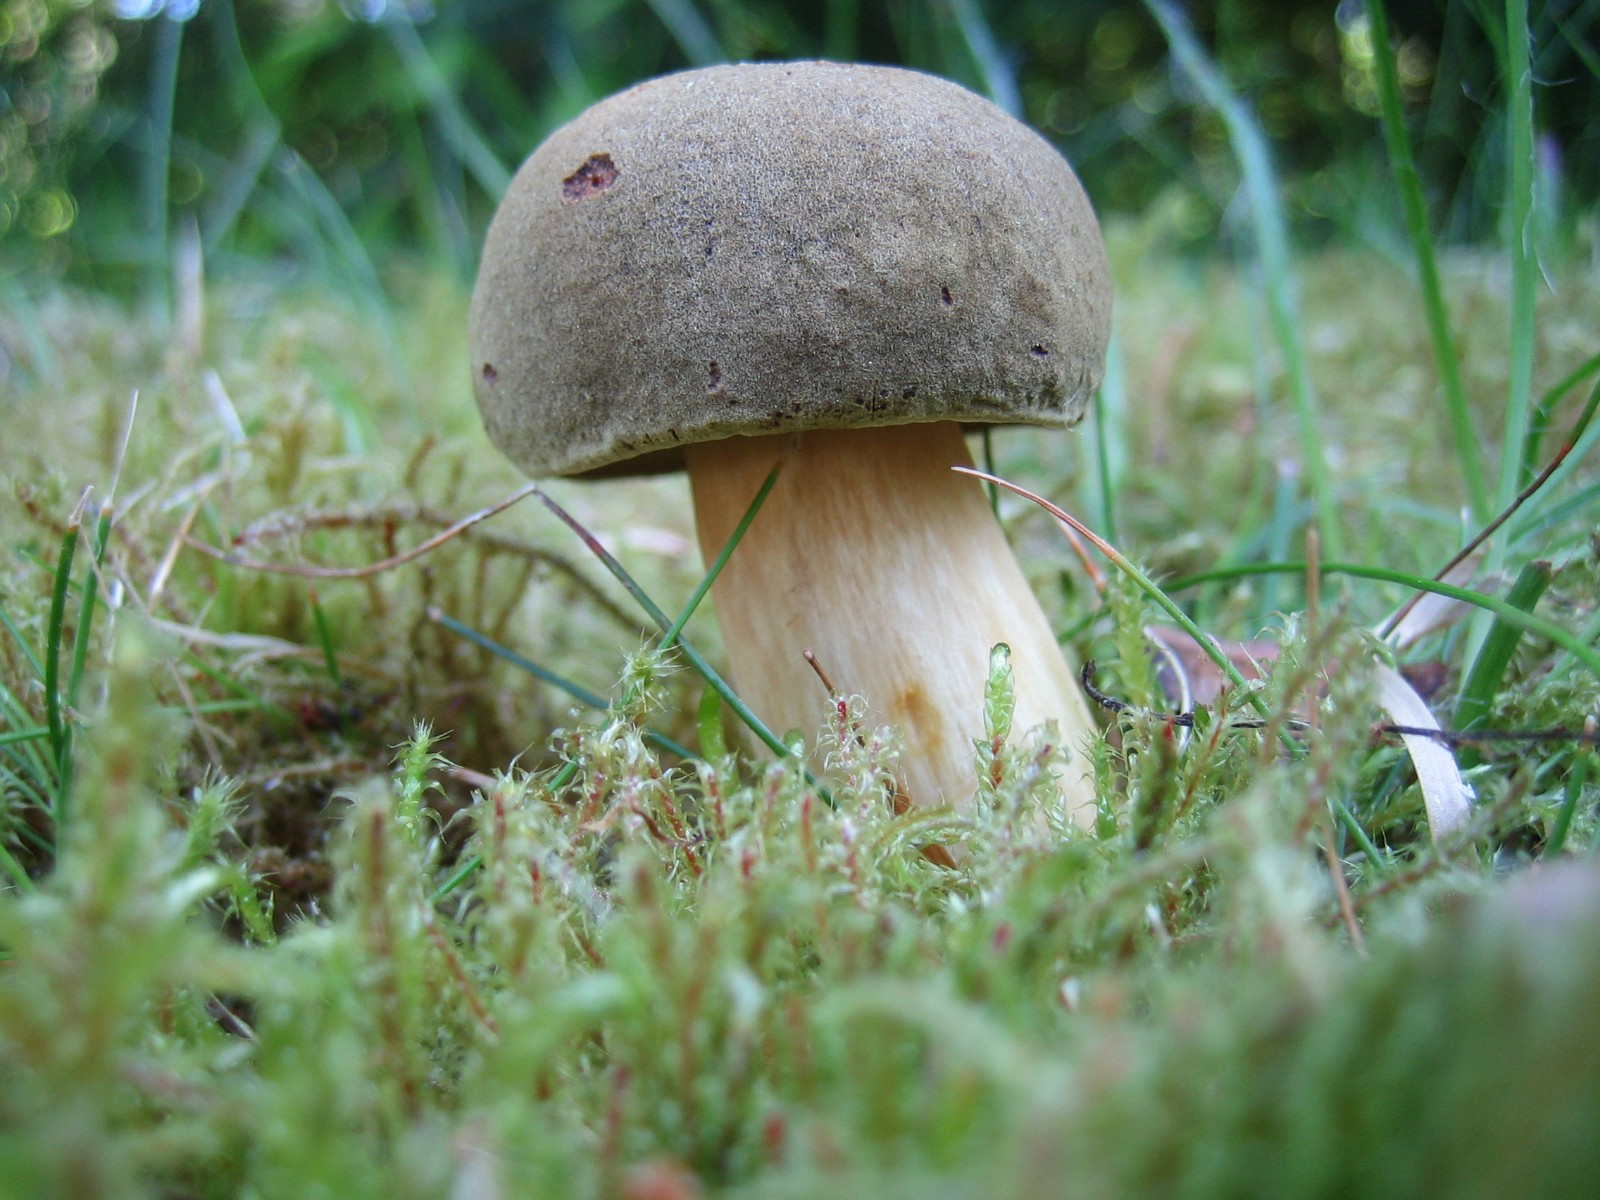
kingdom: Fungi
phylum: Basidiomycota
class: Agaricomycetes
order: Boletales
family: Boletaceae
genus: Xerocomus
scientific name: Xerocomus ferrugineus
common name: vaskeskinds-rørhat
